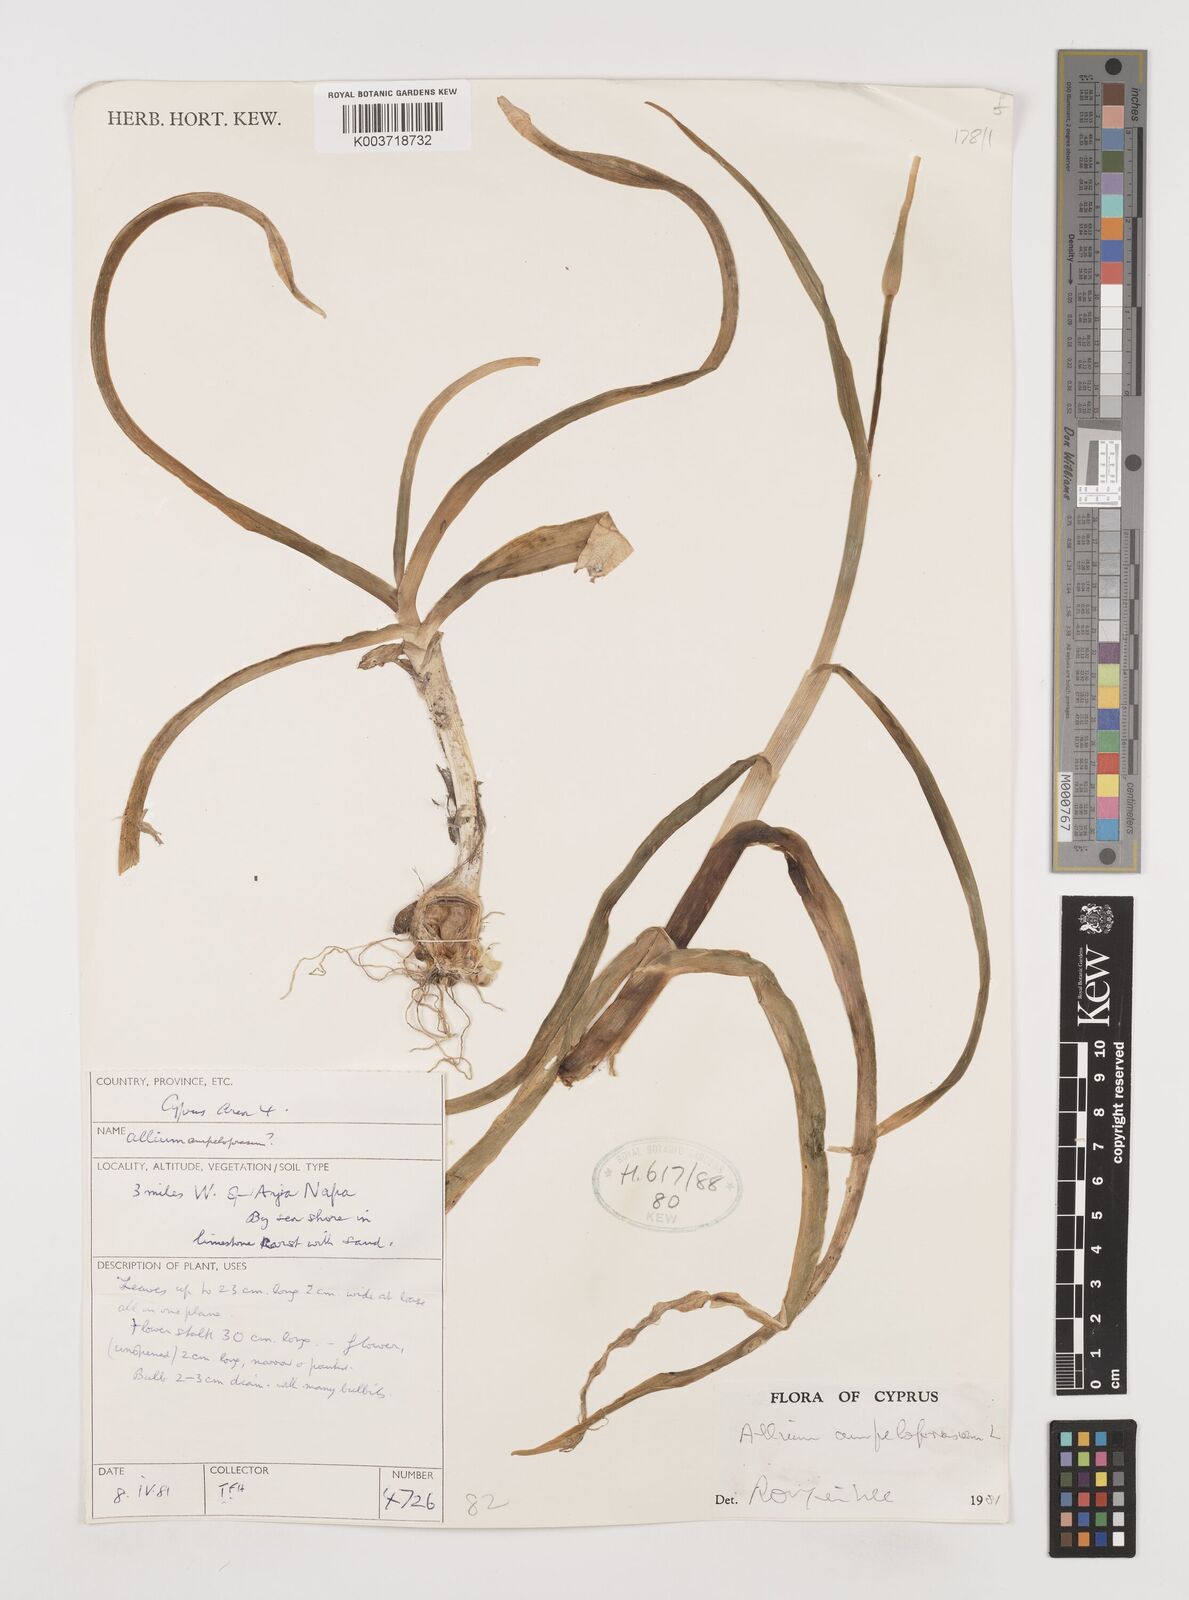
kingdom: Plantae
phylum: Tracheophyta
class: Liliopsida
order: Asparagales
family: Amaryllidaceae
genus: Allium
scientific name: Allium ampeloprasum
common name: Wild leek
